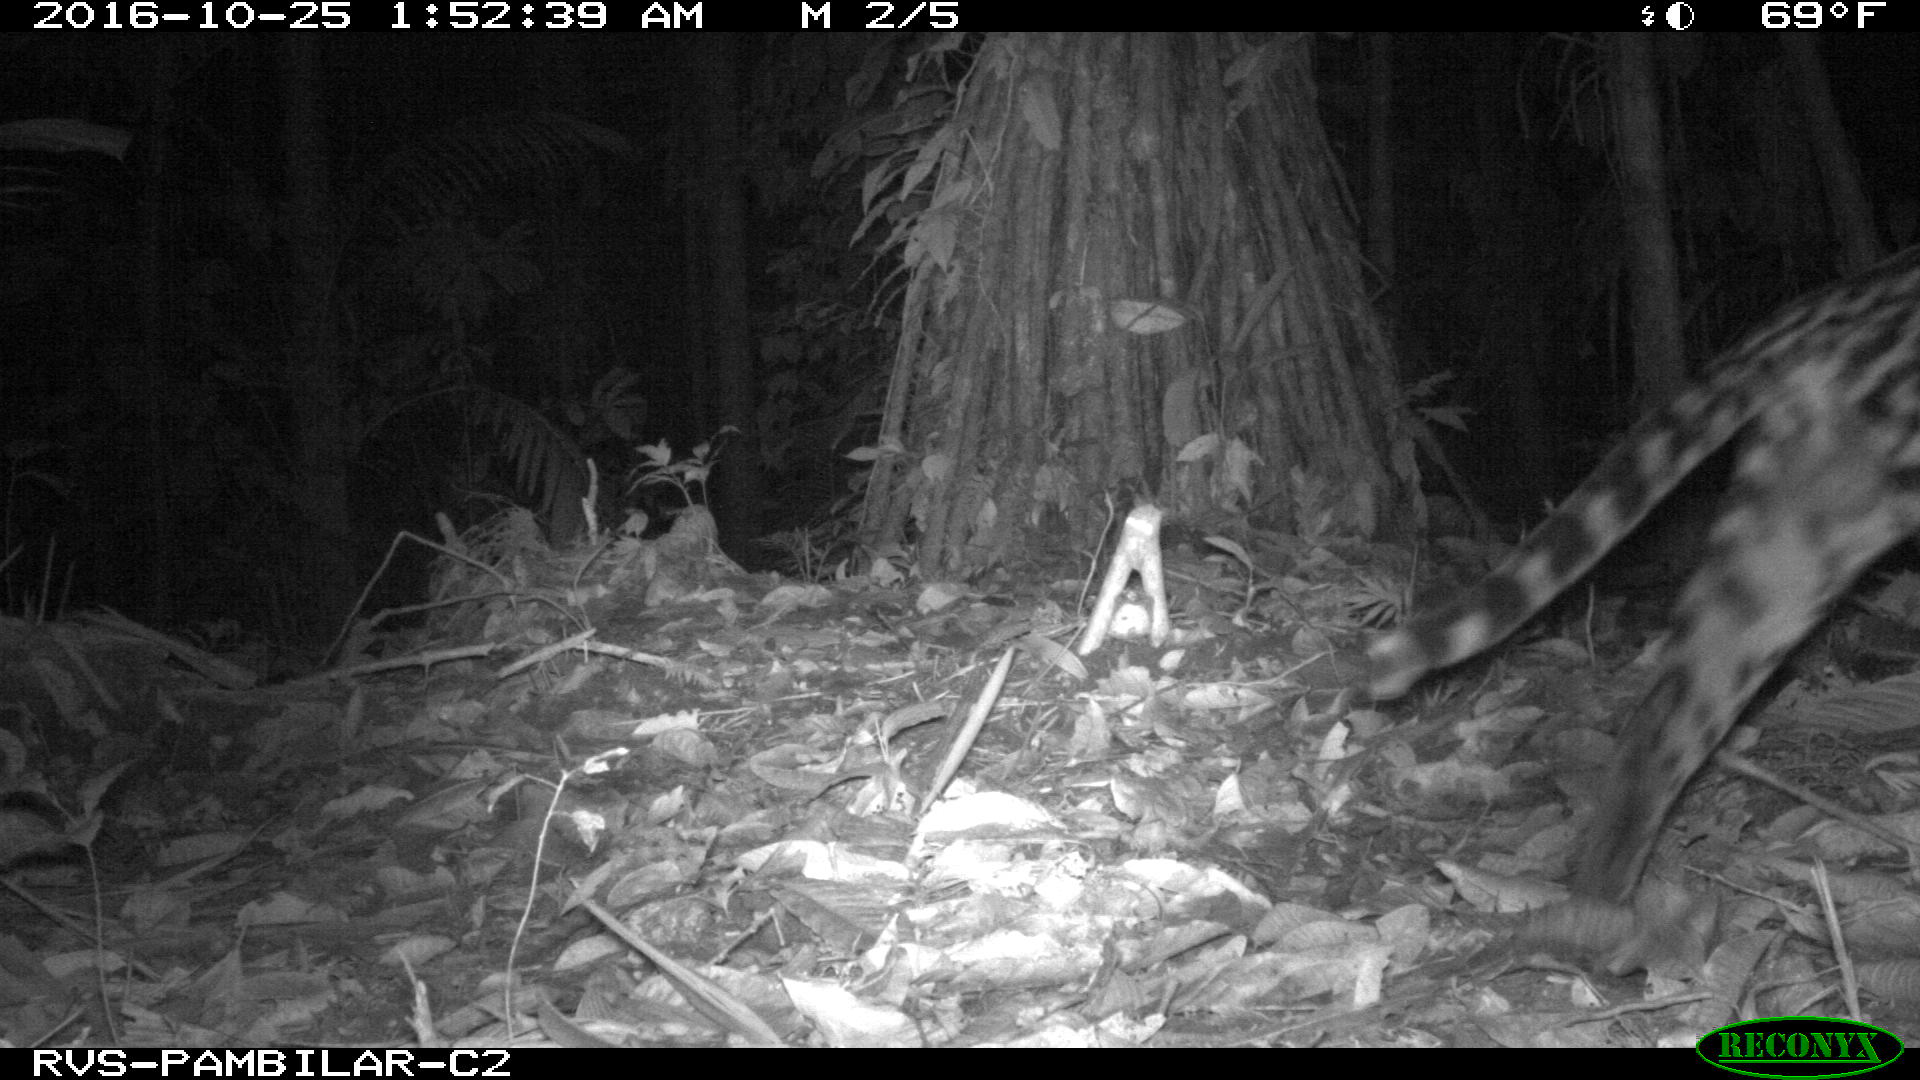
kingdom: Animalia
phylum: Chordata
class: Mammalia
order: Carnivora
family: Felidae
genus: Leopardus
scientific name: Leopardus pardalis
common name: Ocelot
